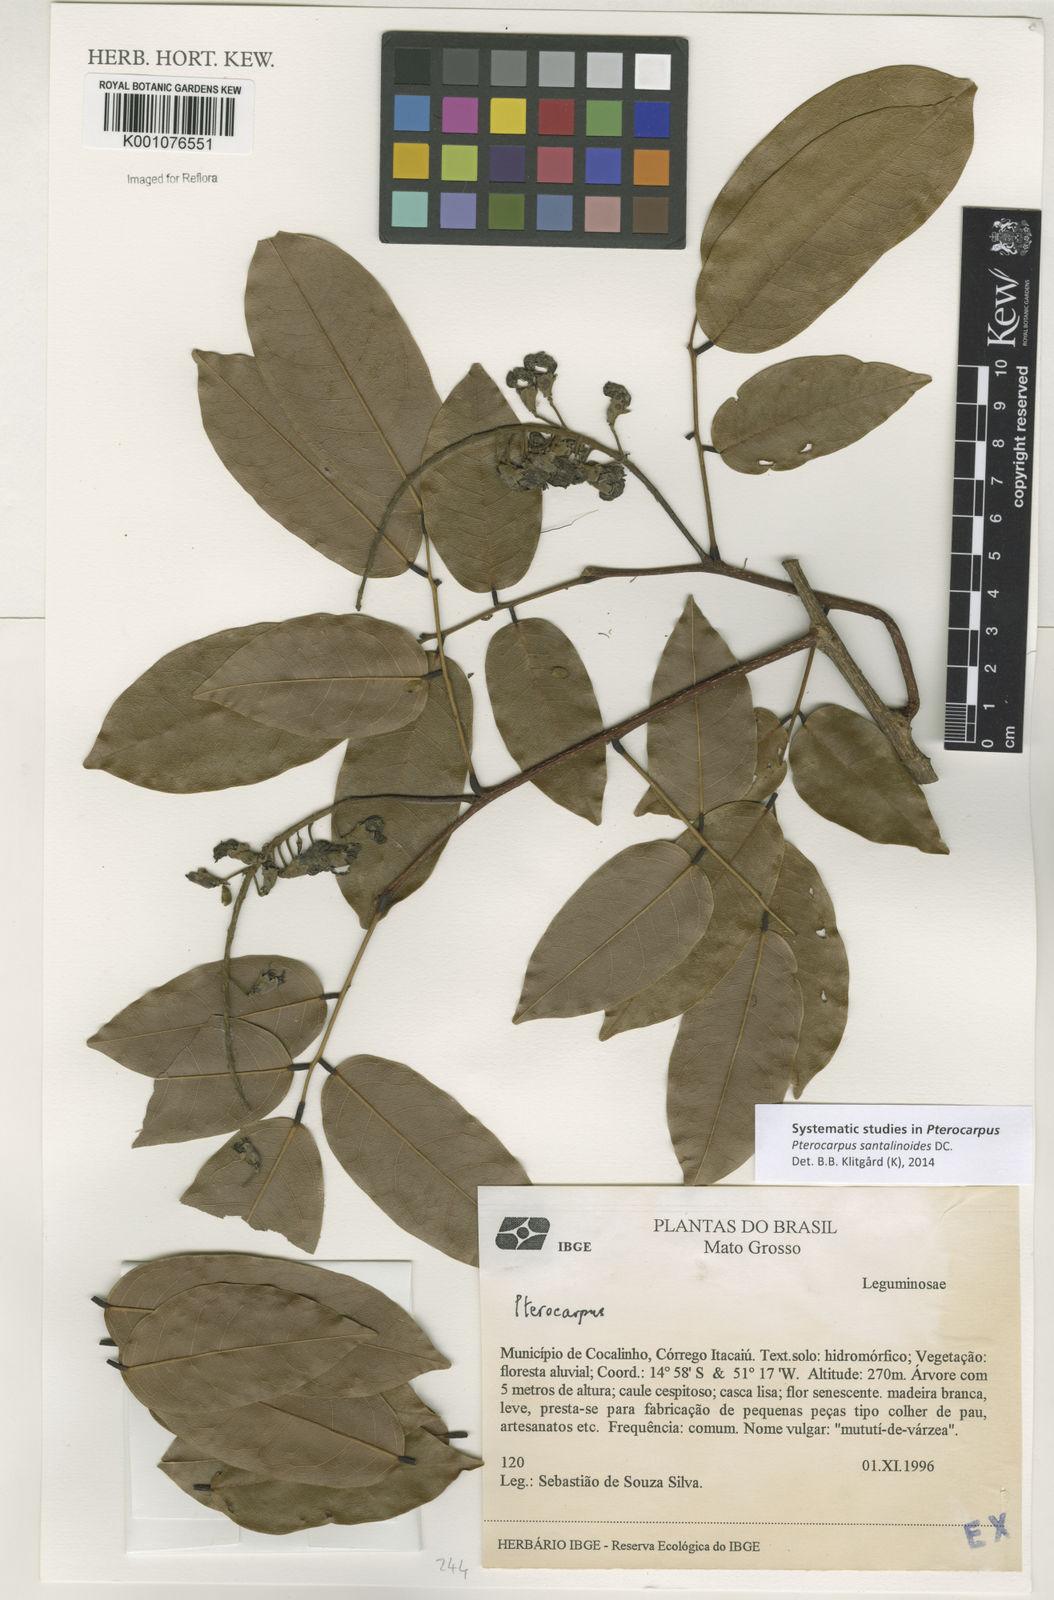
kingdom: Plantae
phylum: Tracheophyta
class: Magnoliopsida
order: Fabales
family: Fabaceae
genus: Pterocarpus
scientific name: Pterocarpus santalinoides
